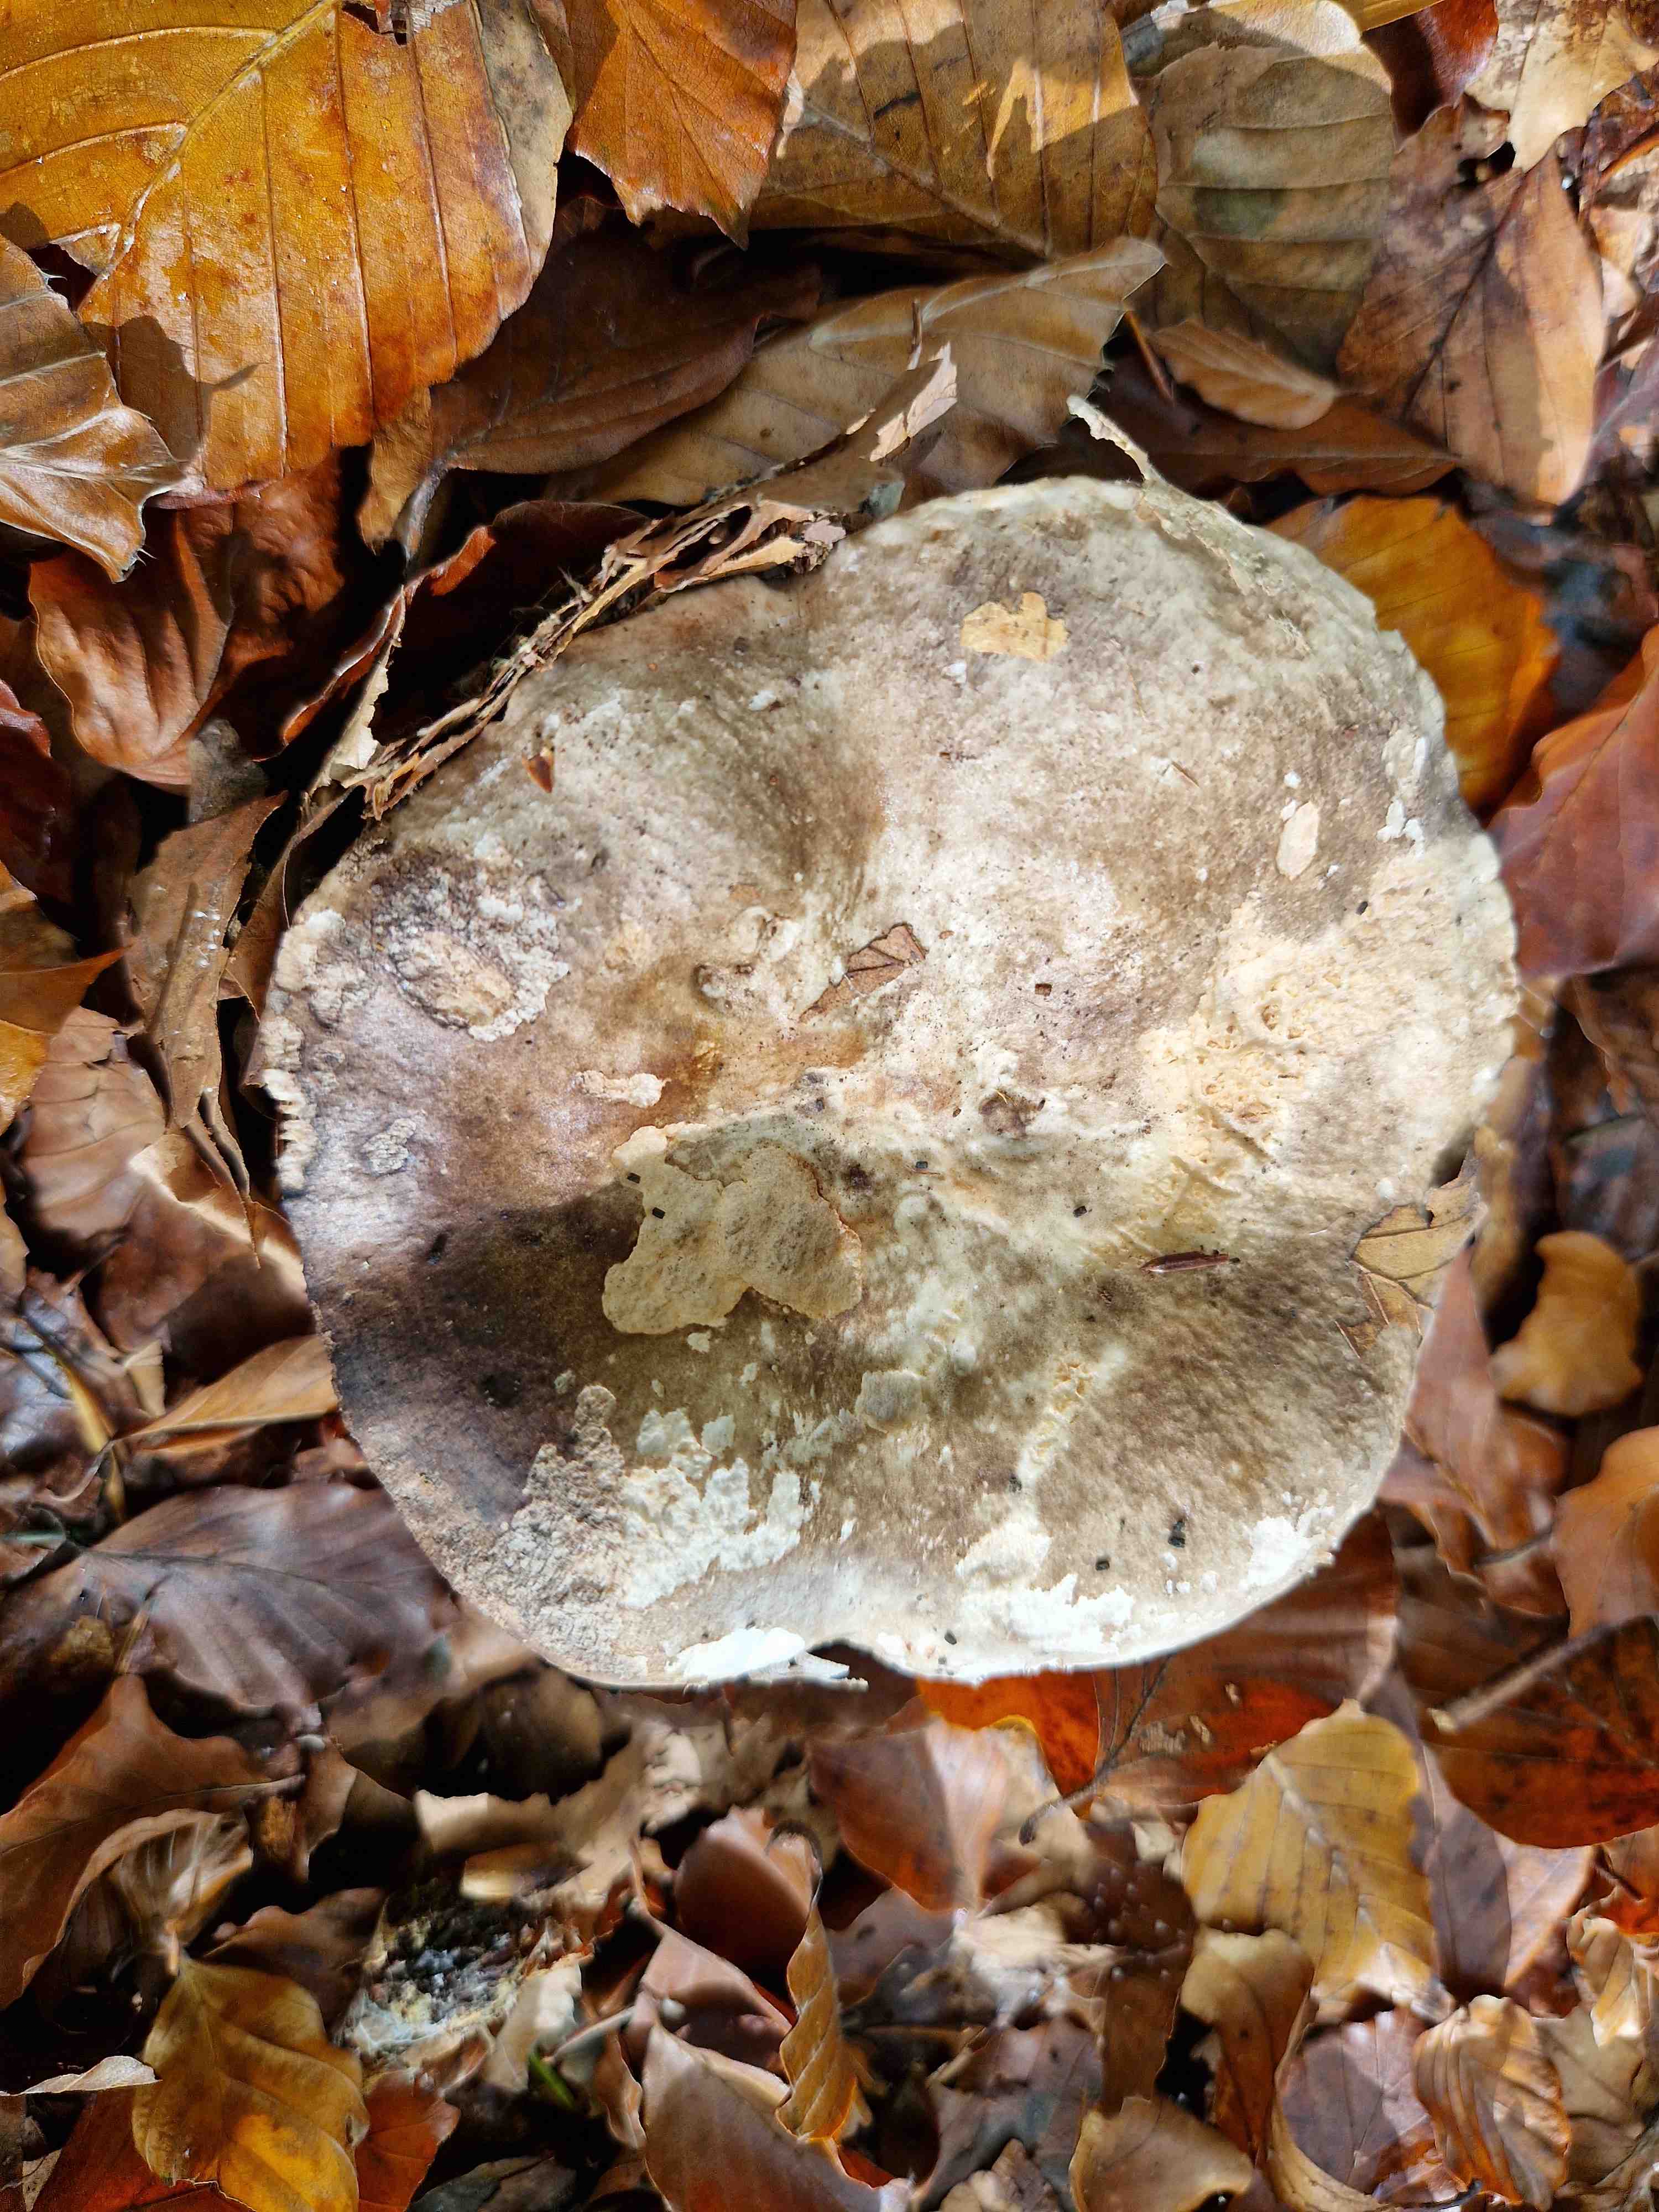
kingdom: Fungi
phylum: Basidiomycota
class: Agaricomycetes
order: Russulales
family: Russulaceae
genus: Russula
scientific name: Russula adusta
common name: sværtende skørhat
